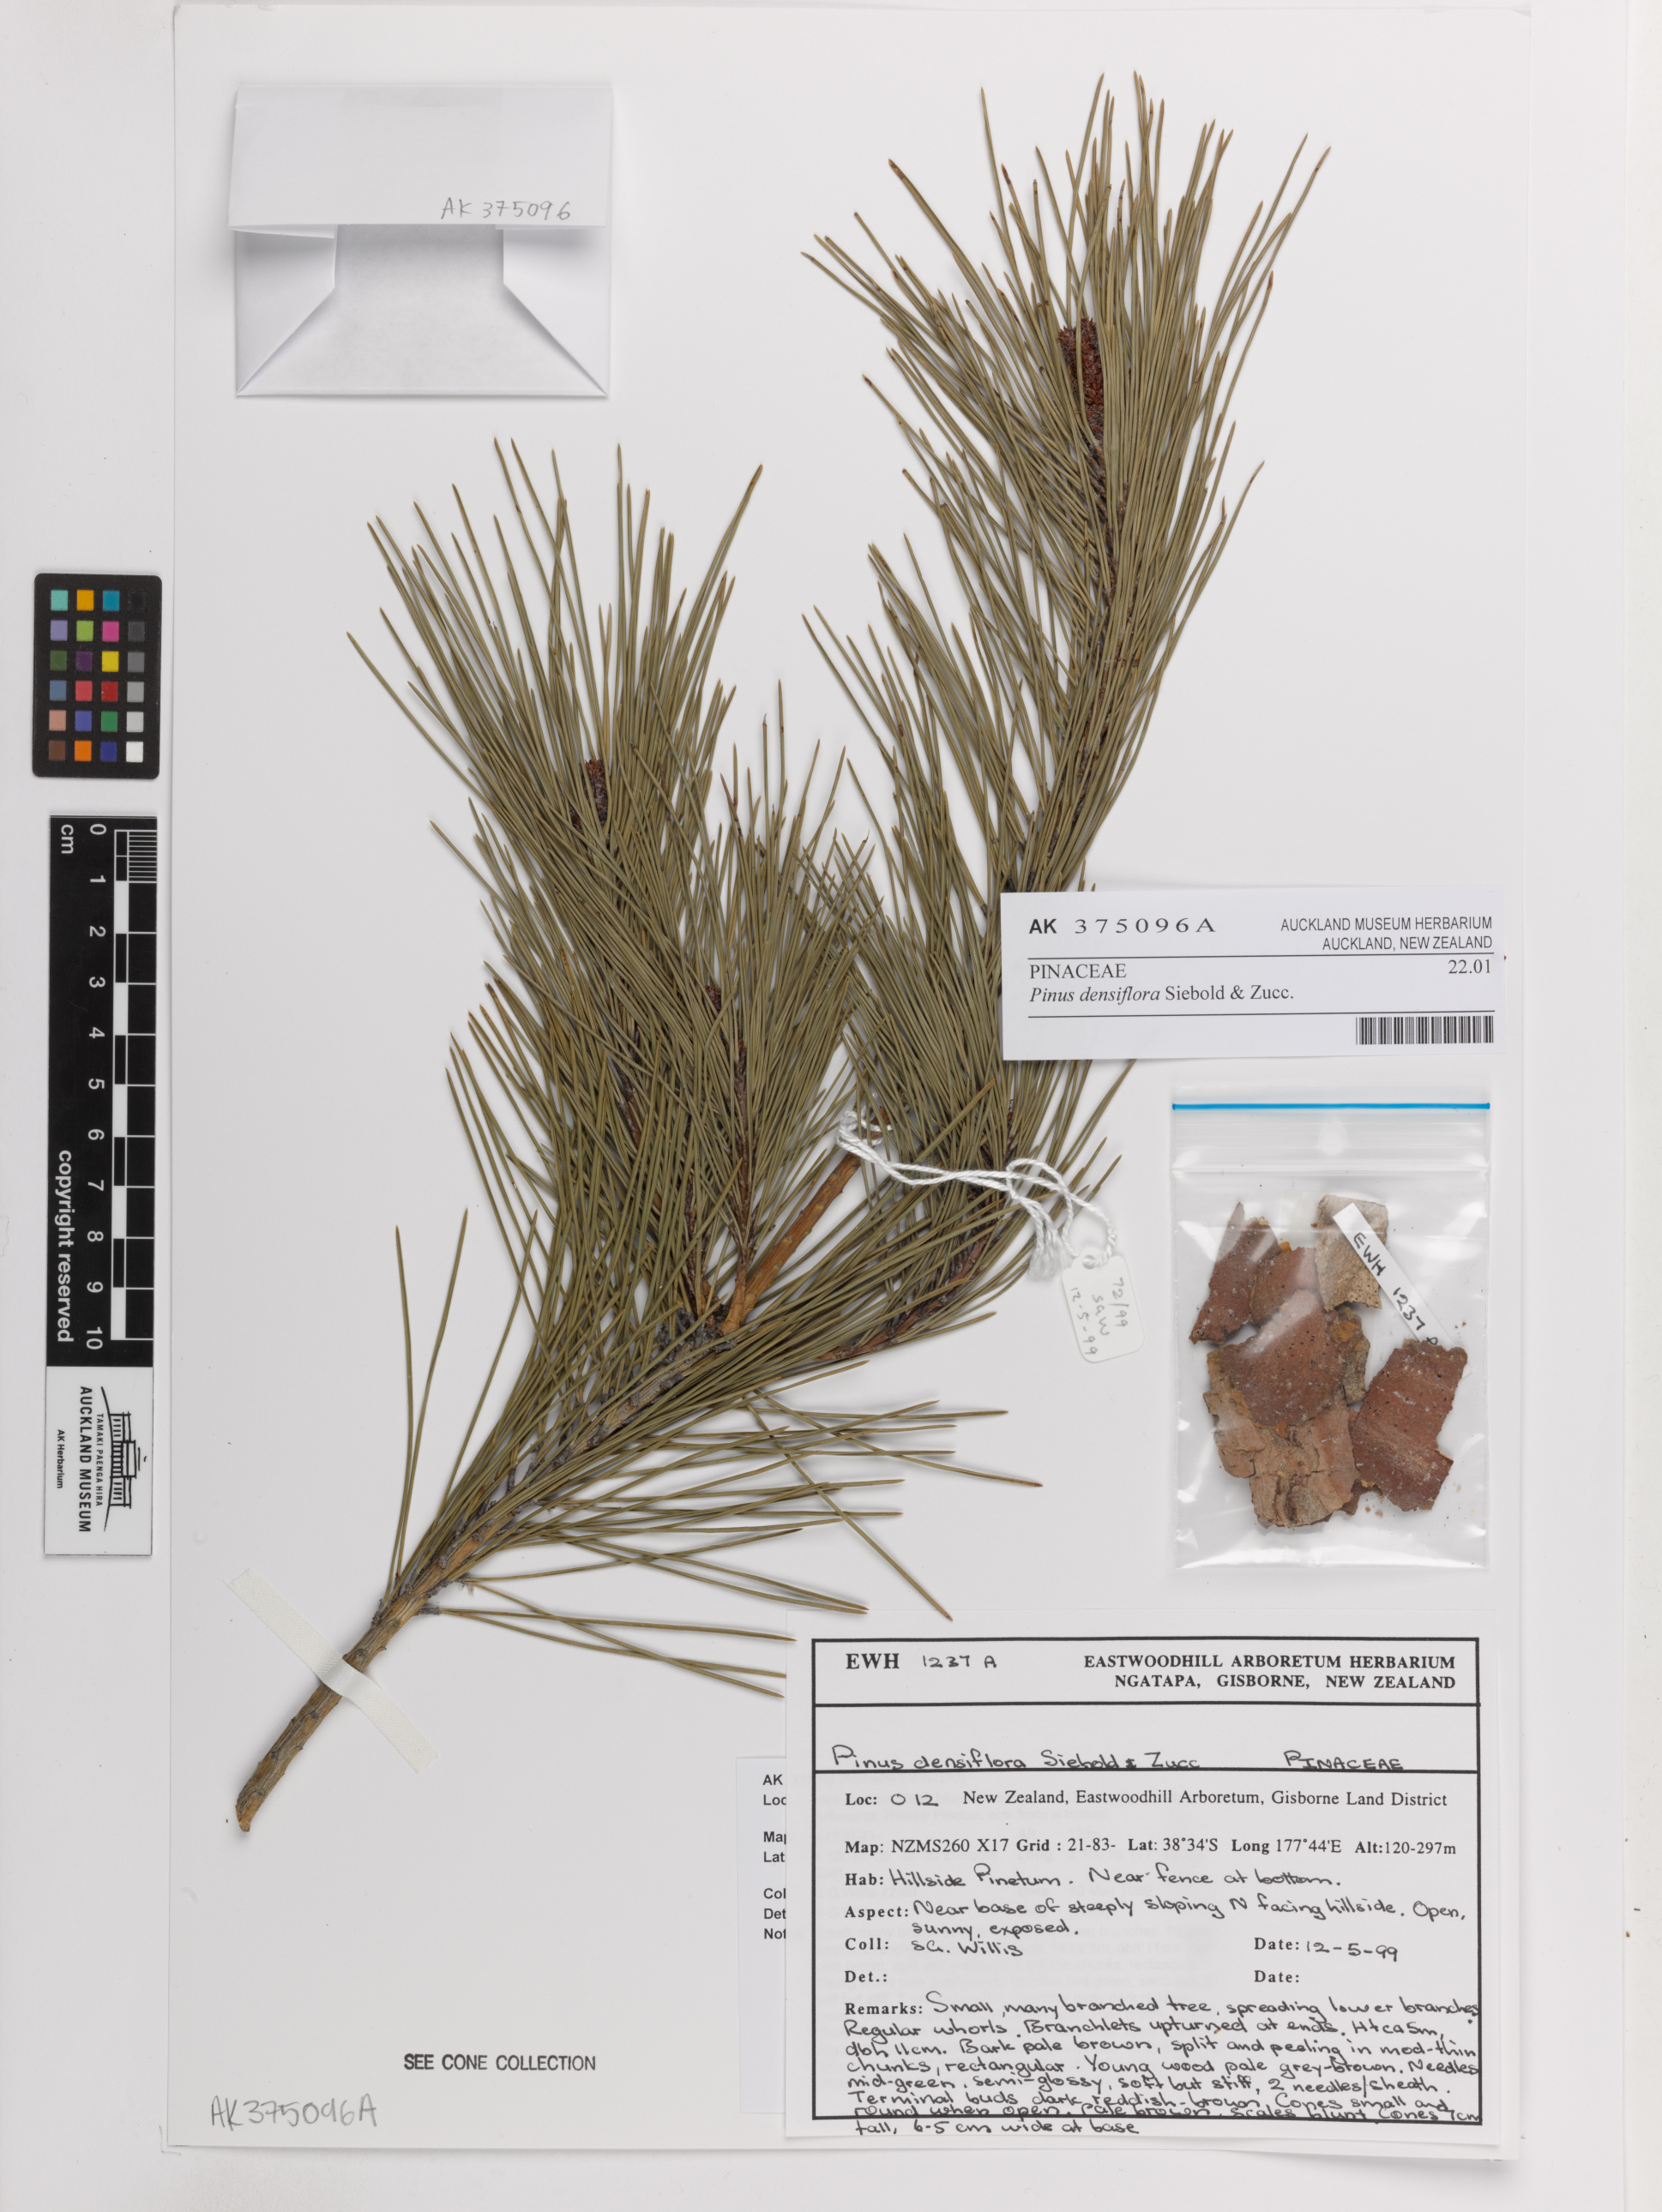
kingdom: Plantae
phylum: Tracheophyta
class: Pinopsida
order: Pinales
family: Pinaceae
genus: Pinus
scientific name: Pinus densiflora
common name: Japanese red pine
